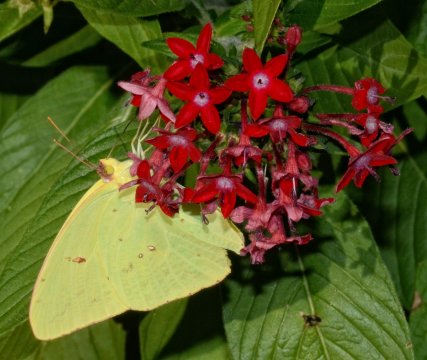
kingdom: Animalia
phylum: Arthropoda
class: Insecta
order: Lepidoptera
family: Pieridae
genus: Phoebis
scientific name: Phoebis sennae
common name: Cloudless Sulphur
